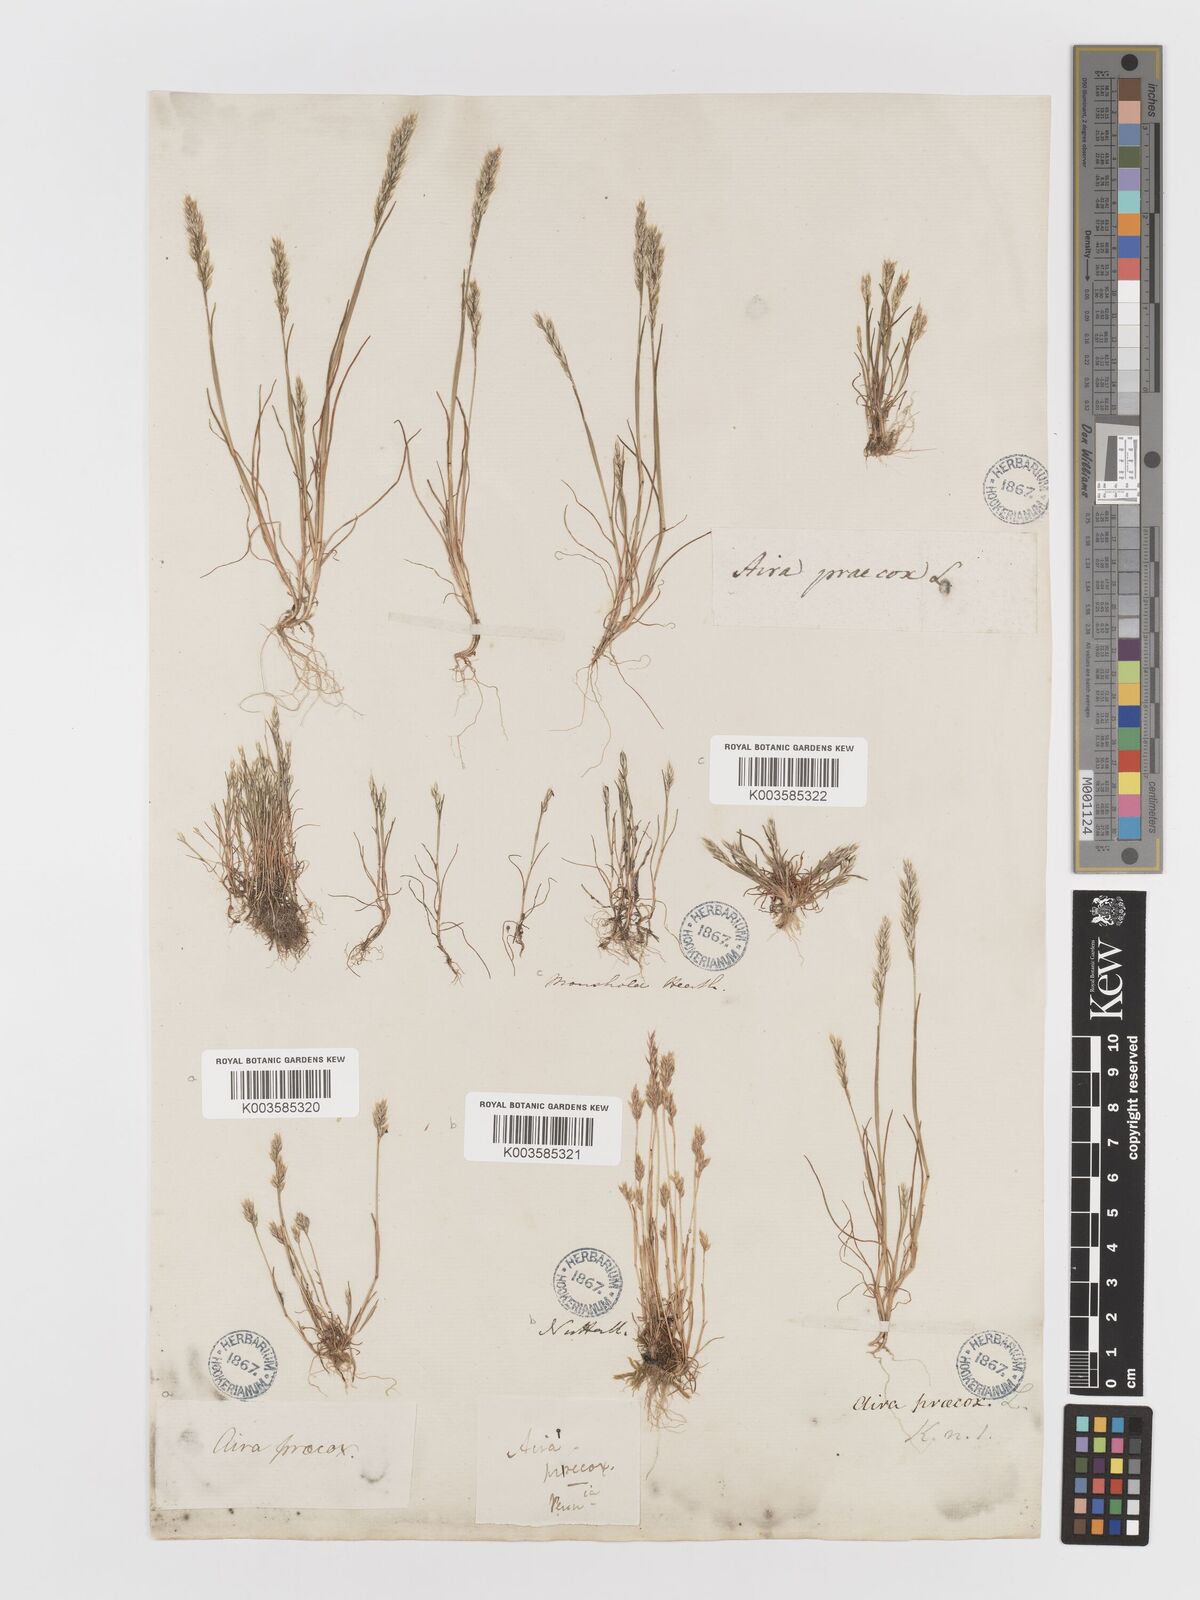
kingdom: Plantae
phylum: Tracheophyta
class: Liliopsida
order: Poales
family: Poaceae
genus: Aira
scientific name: Aira praecox
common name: Early hair-grass
